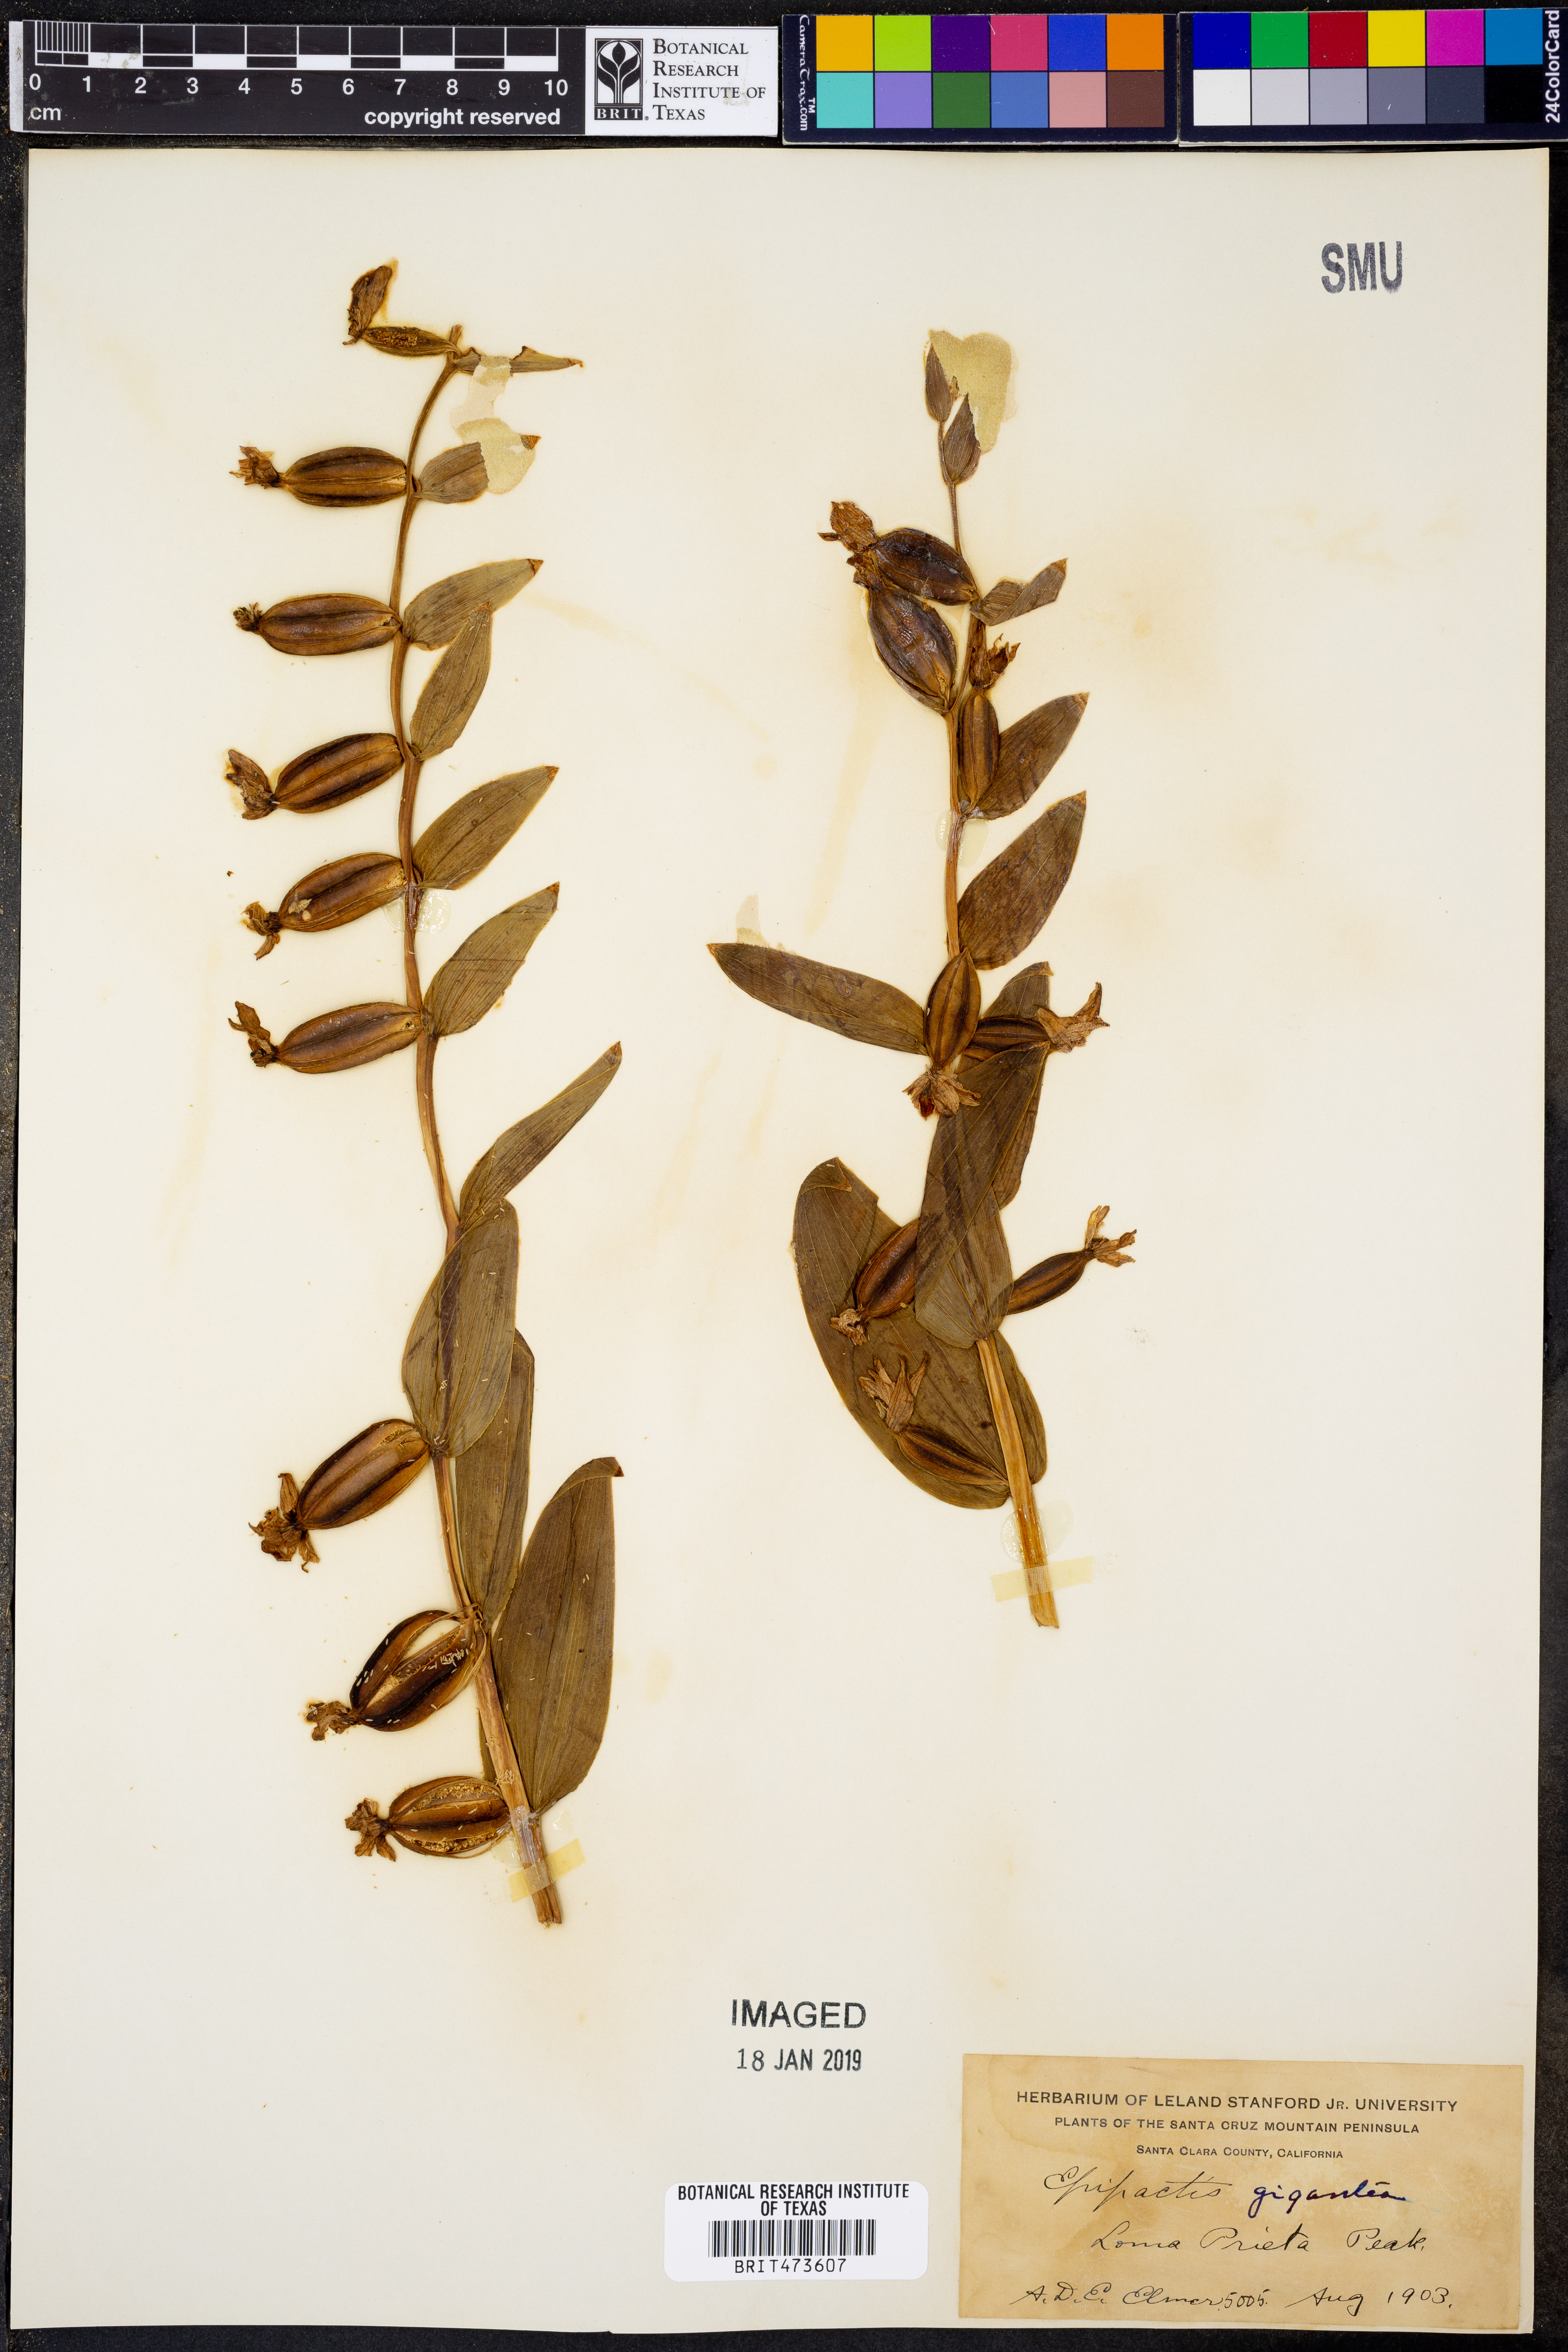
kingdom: Plantae
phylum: Tracheophyta
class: Liliopsida
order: Asparagales
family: Orchidaceae
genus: Epipactis
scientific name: Epipactis gigantea
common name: Chatterbox
